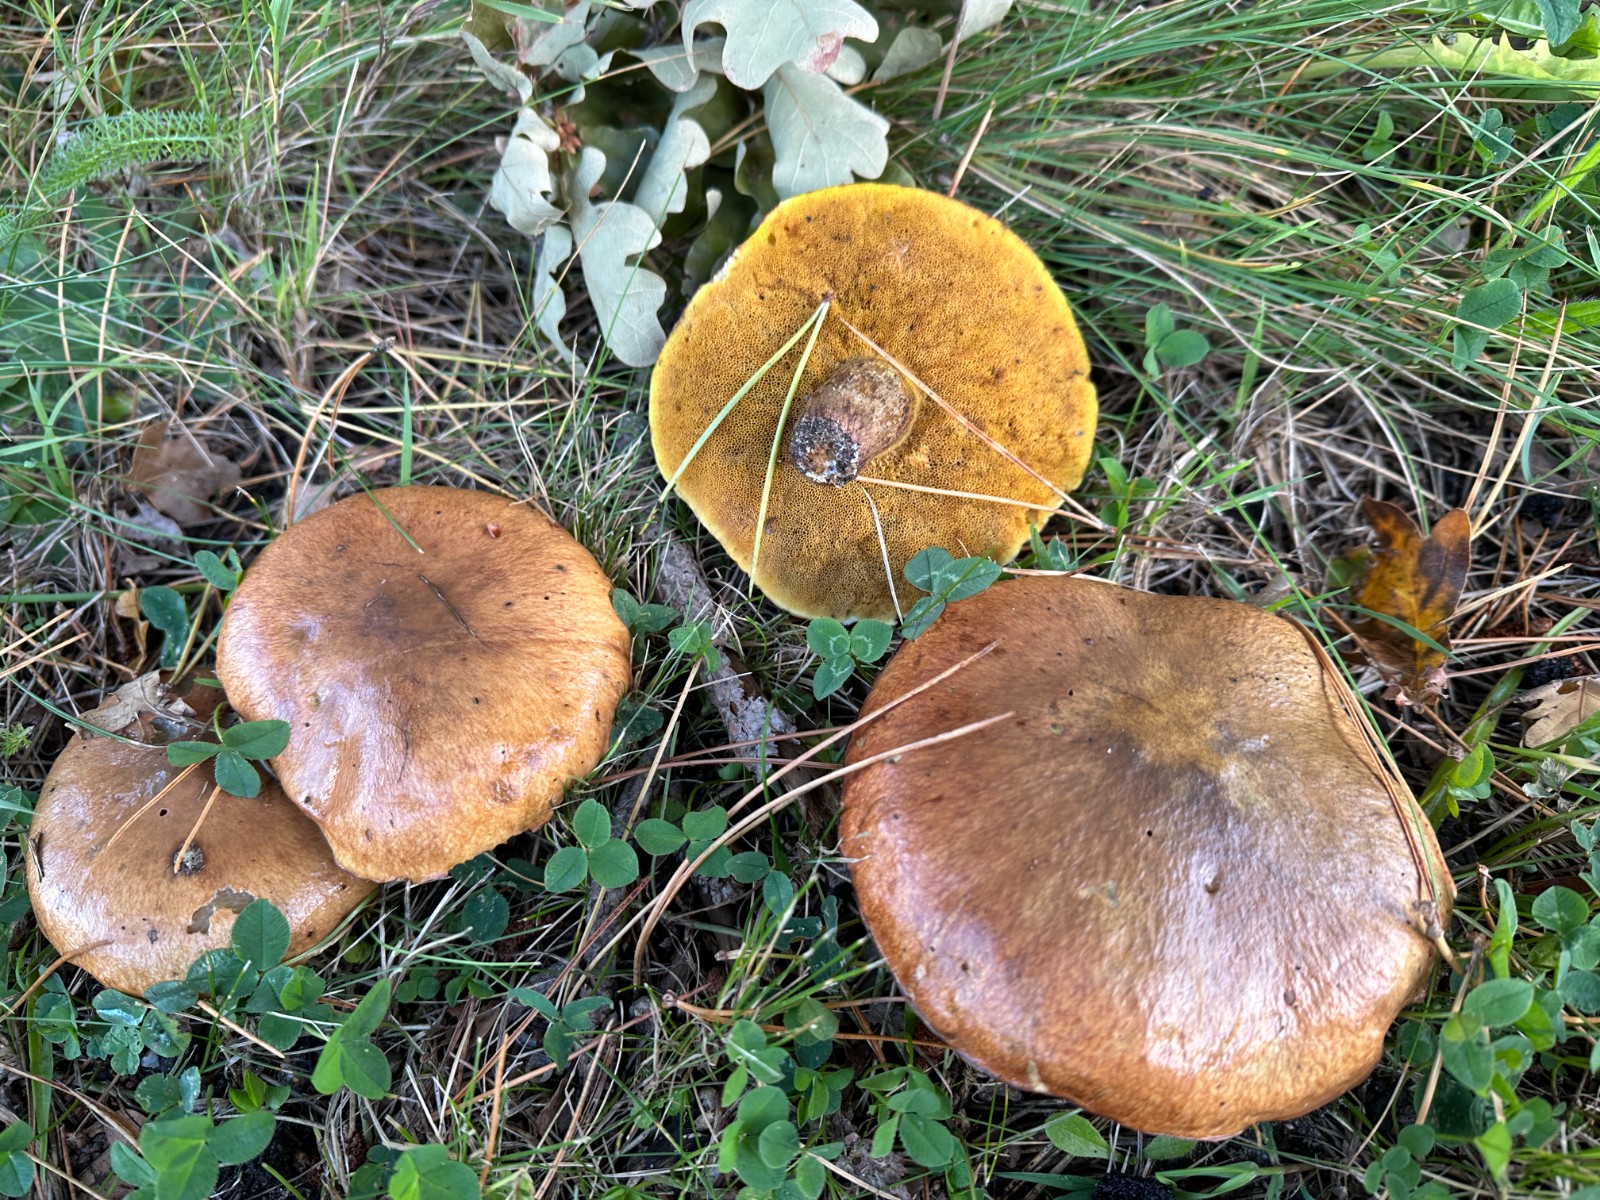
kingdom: Fungi
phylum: Basidiomycota
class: Agaricomycetes
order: Boletales
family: Suillaceae
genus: Suillus
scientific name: Suillus luteus
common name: brungul slimrørhat
